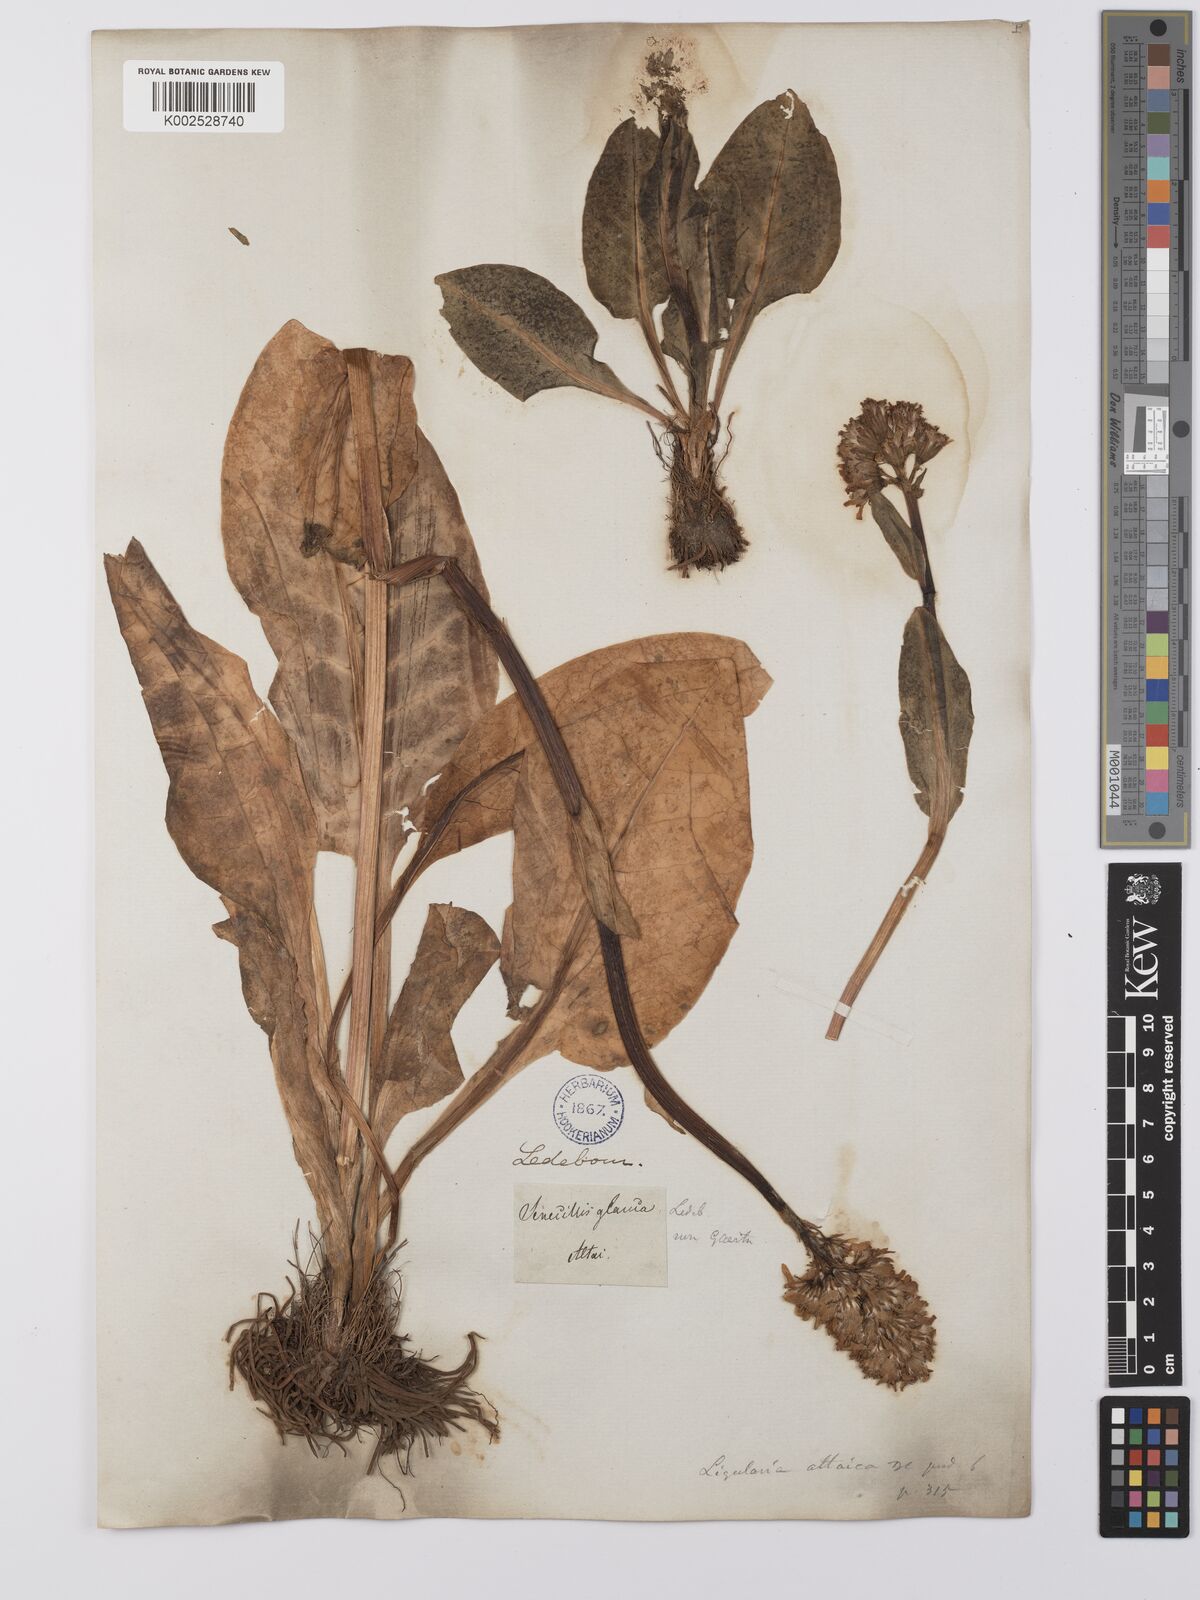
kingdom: Plantae
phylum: Tracheophyta
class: Magnoliopsida
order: Asterales
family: Asteraceae
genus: Ligularia
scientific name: Ligularia altaica
